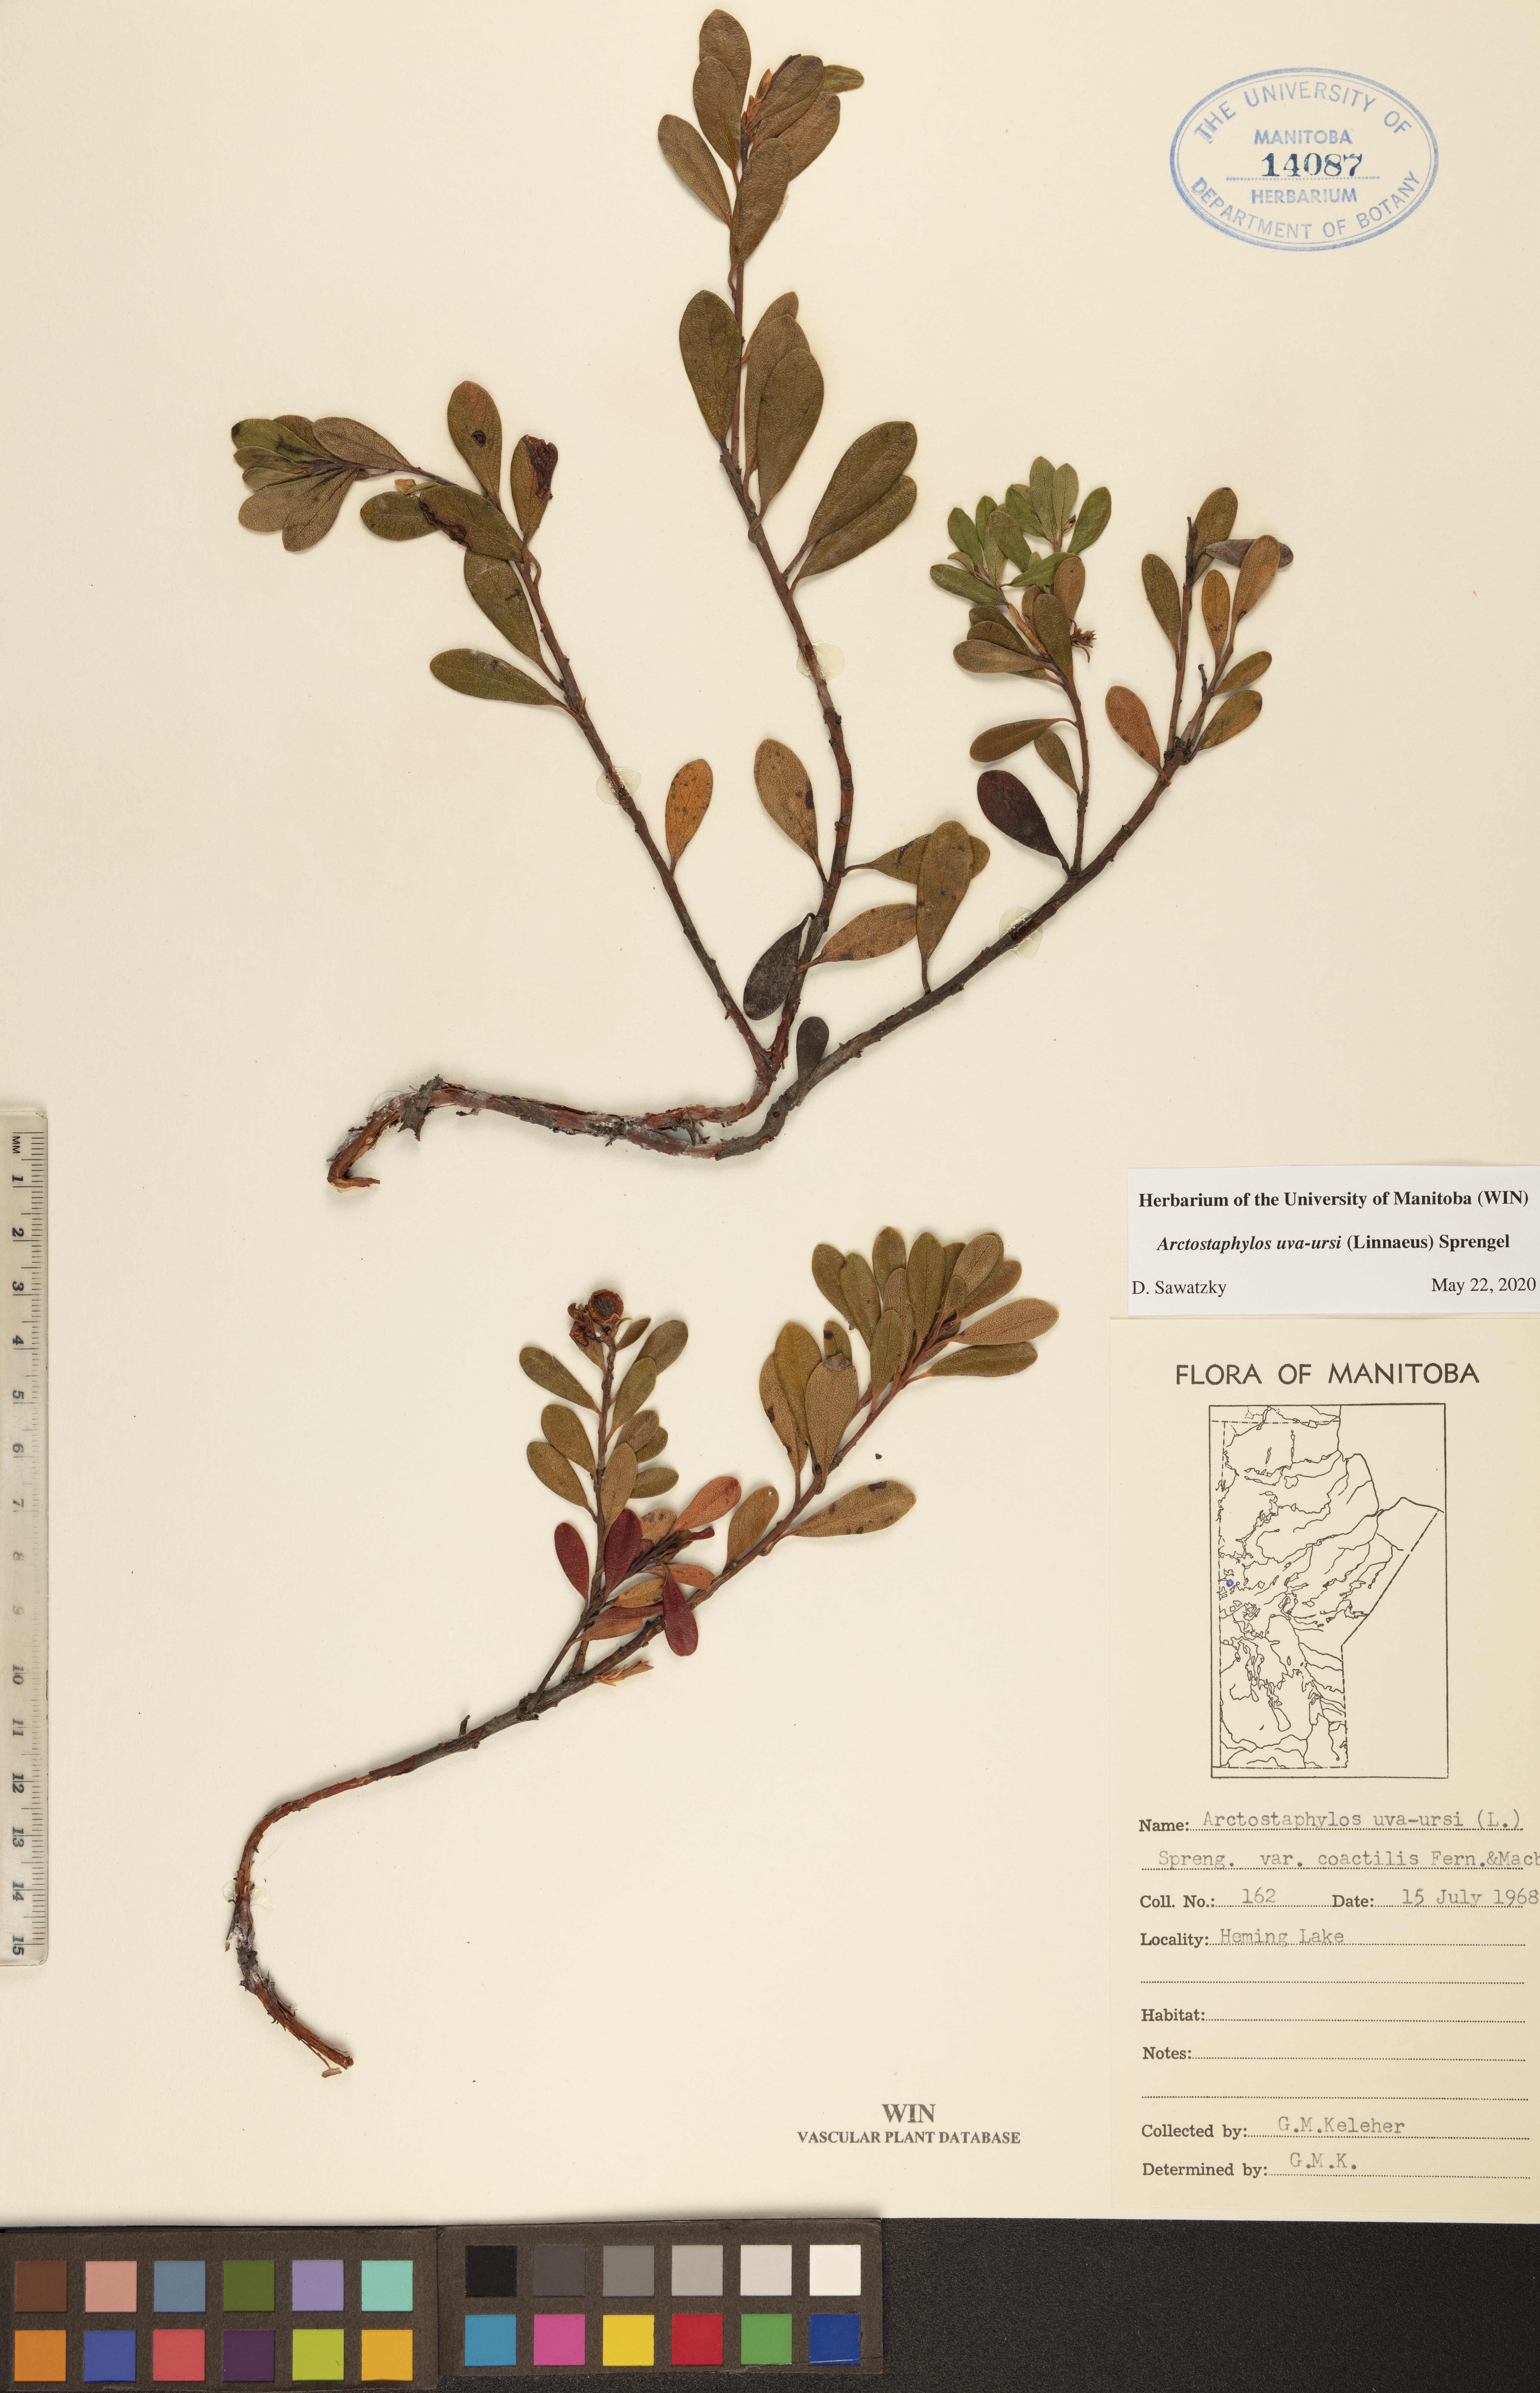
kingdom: Plantae
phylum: Tracheophyta
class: Magnoliopsida
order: Ericales
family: Ericaceae
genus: Arctostaphylos
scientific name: Arctostaphylos uva-ursi
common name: Bearberry
